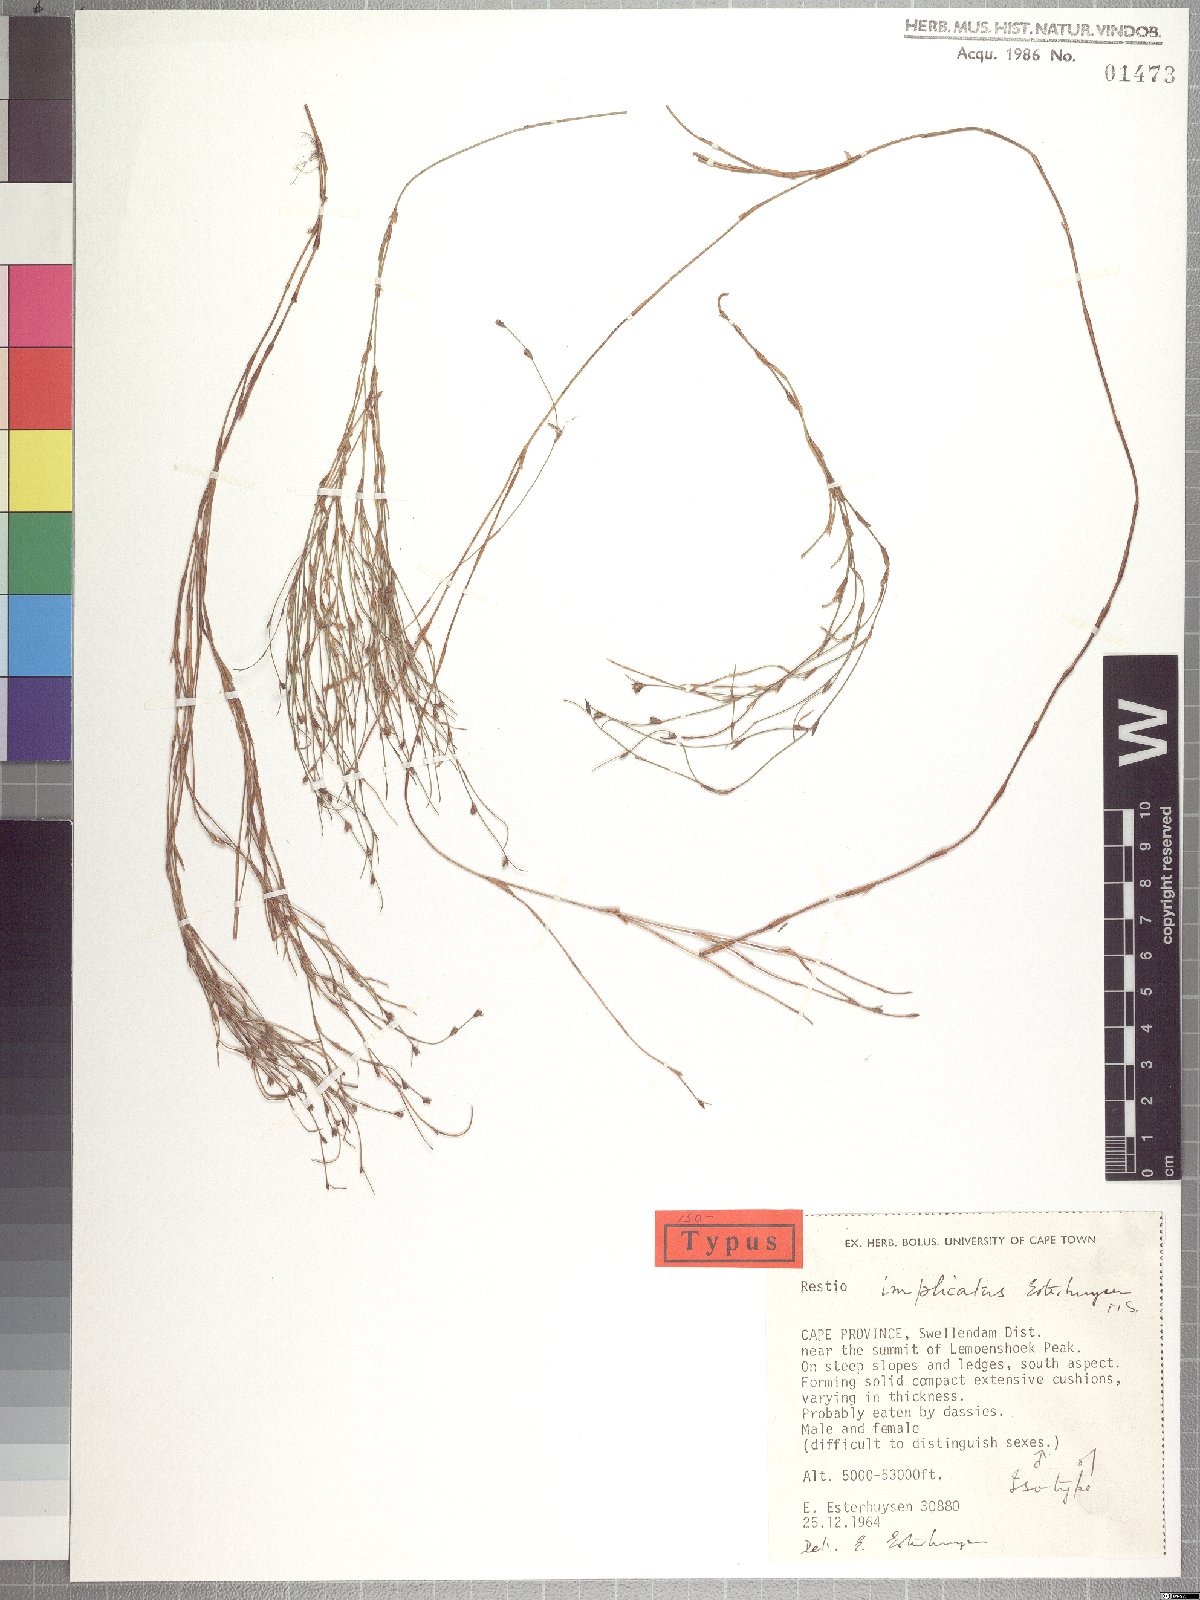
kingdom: Plantae
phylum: Tracheophyta
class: Liliopsida
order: Poales
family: Restionaceae
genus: Restio
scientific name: Restio implicatus
